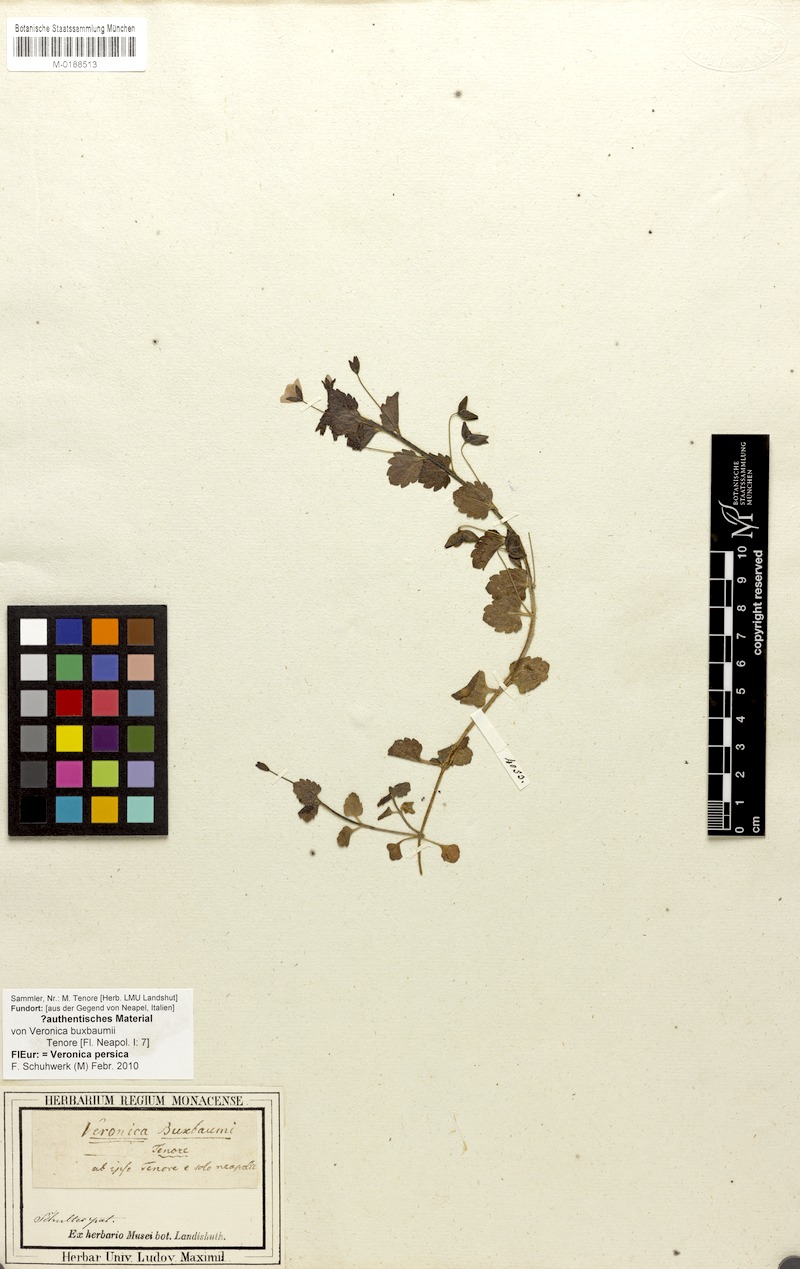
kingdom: Plantae
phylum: Tracheophyta
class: Magnoliopsida
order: Lamiales
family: Plantaginaceae
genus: Veronica
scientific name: Veronica persica
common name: Common field-speedwell
